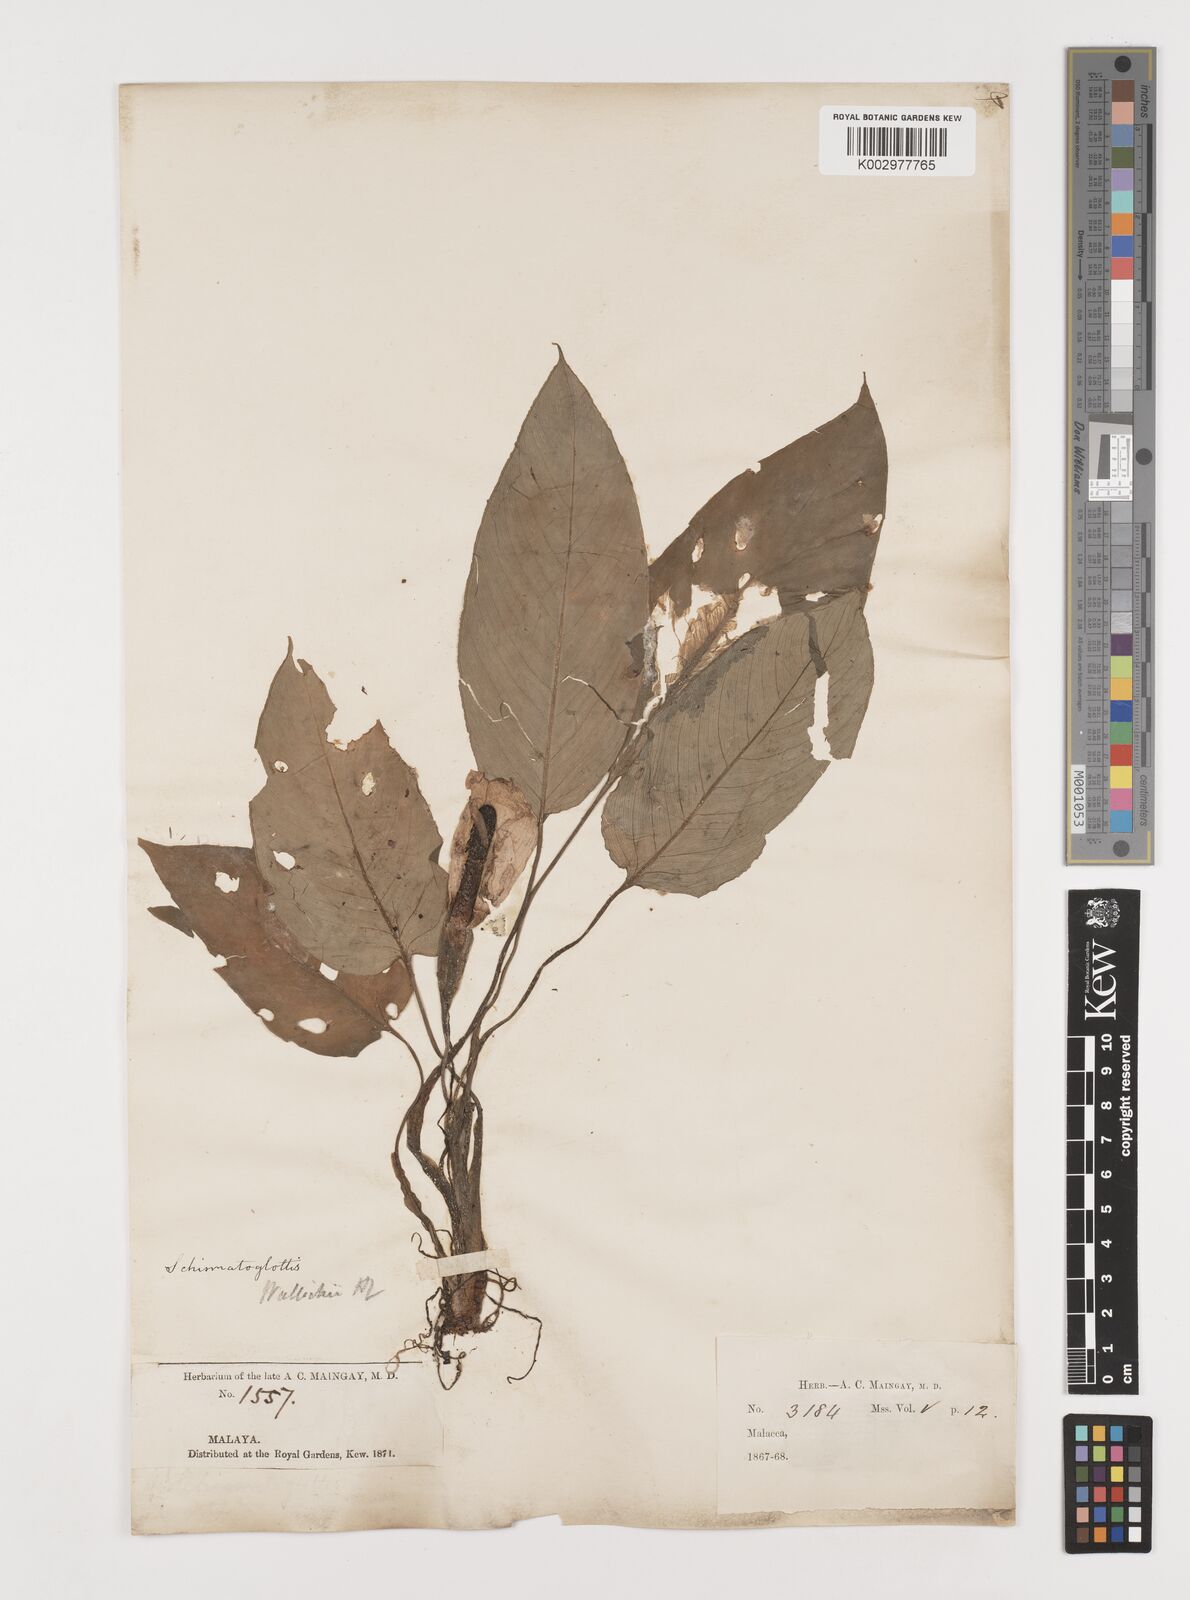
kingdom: Plantae
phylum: Tracheophyta
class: Liliopsida
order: Alismatales
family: Araceae
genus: Schismatoglottis
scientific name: Schismatoglottis wallichii
